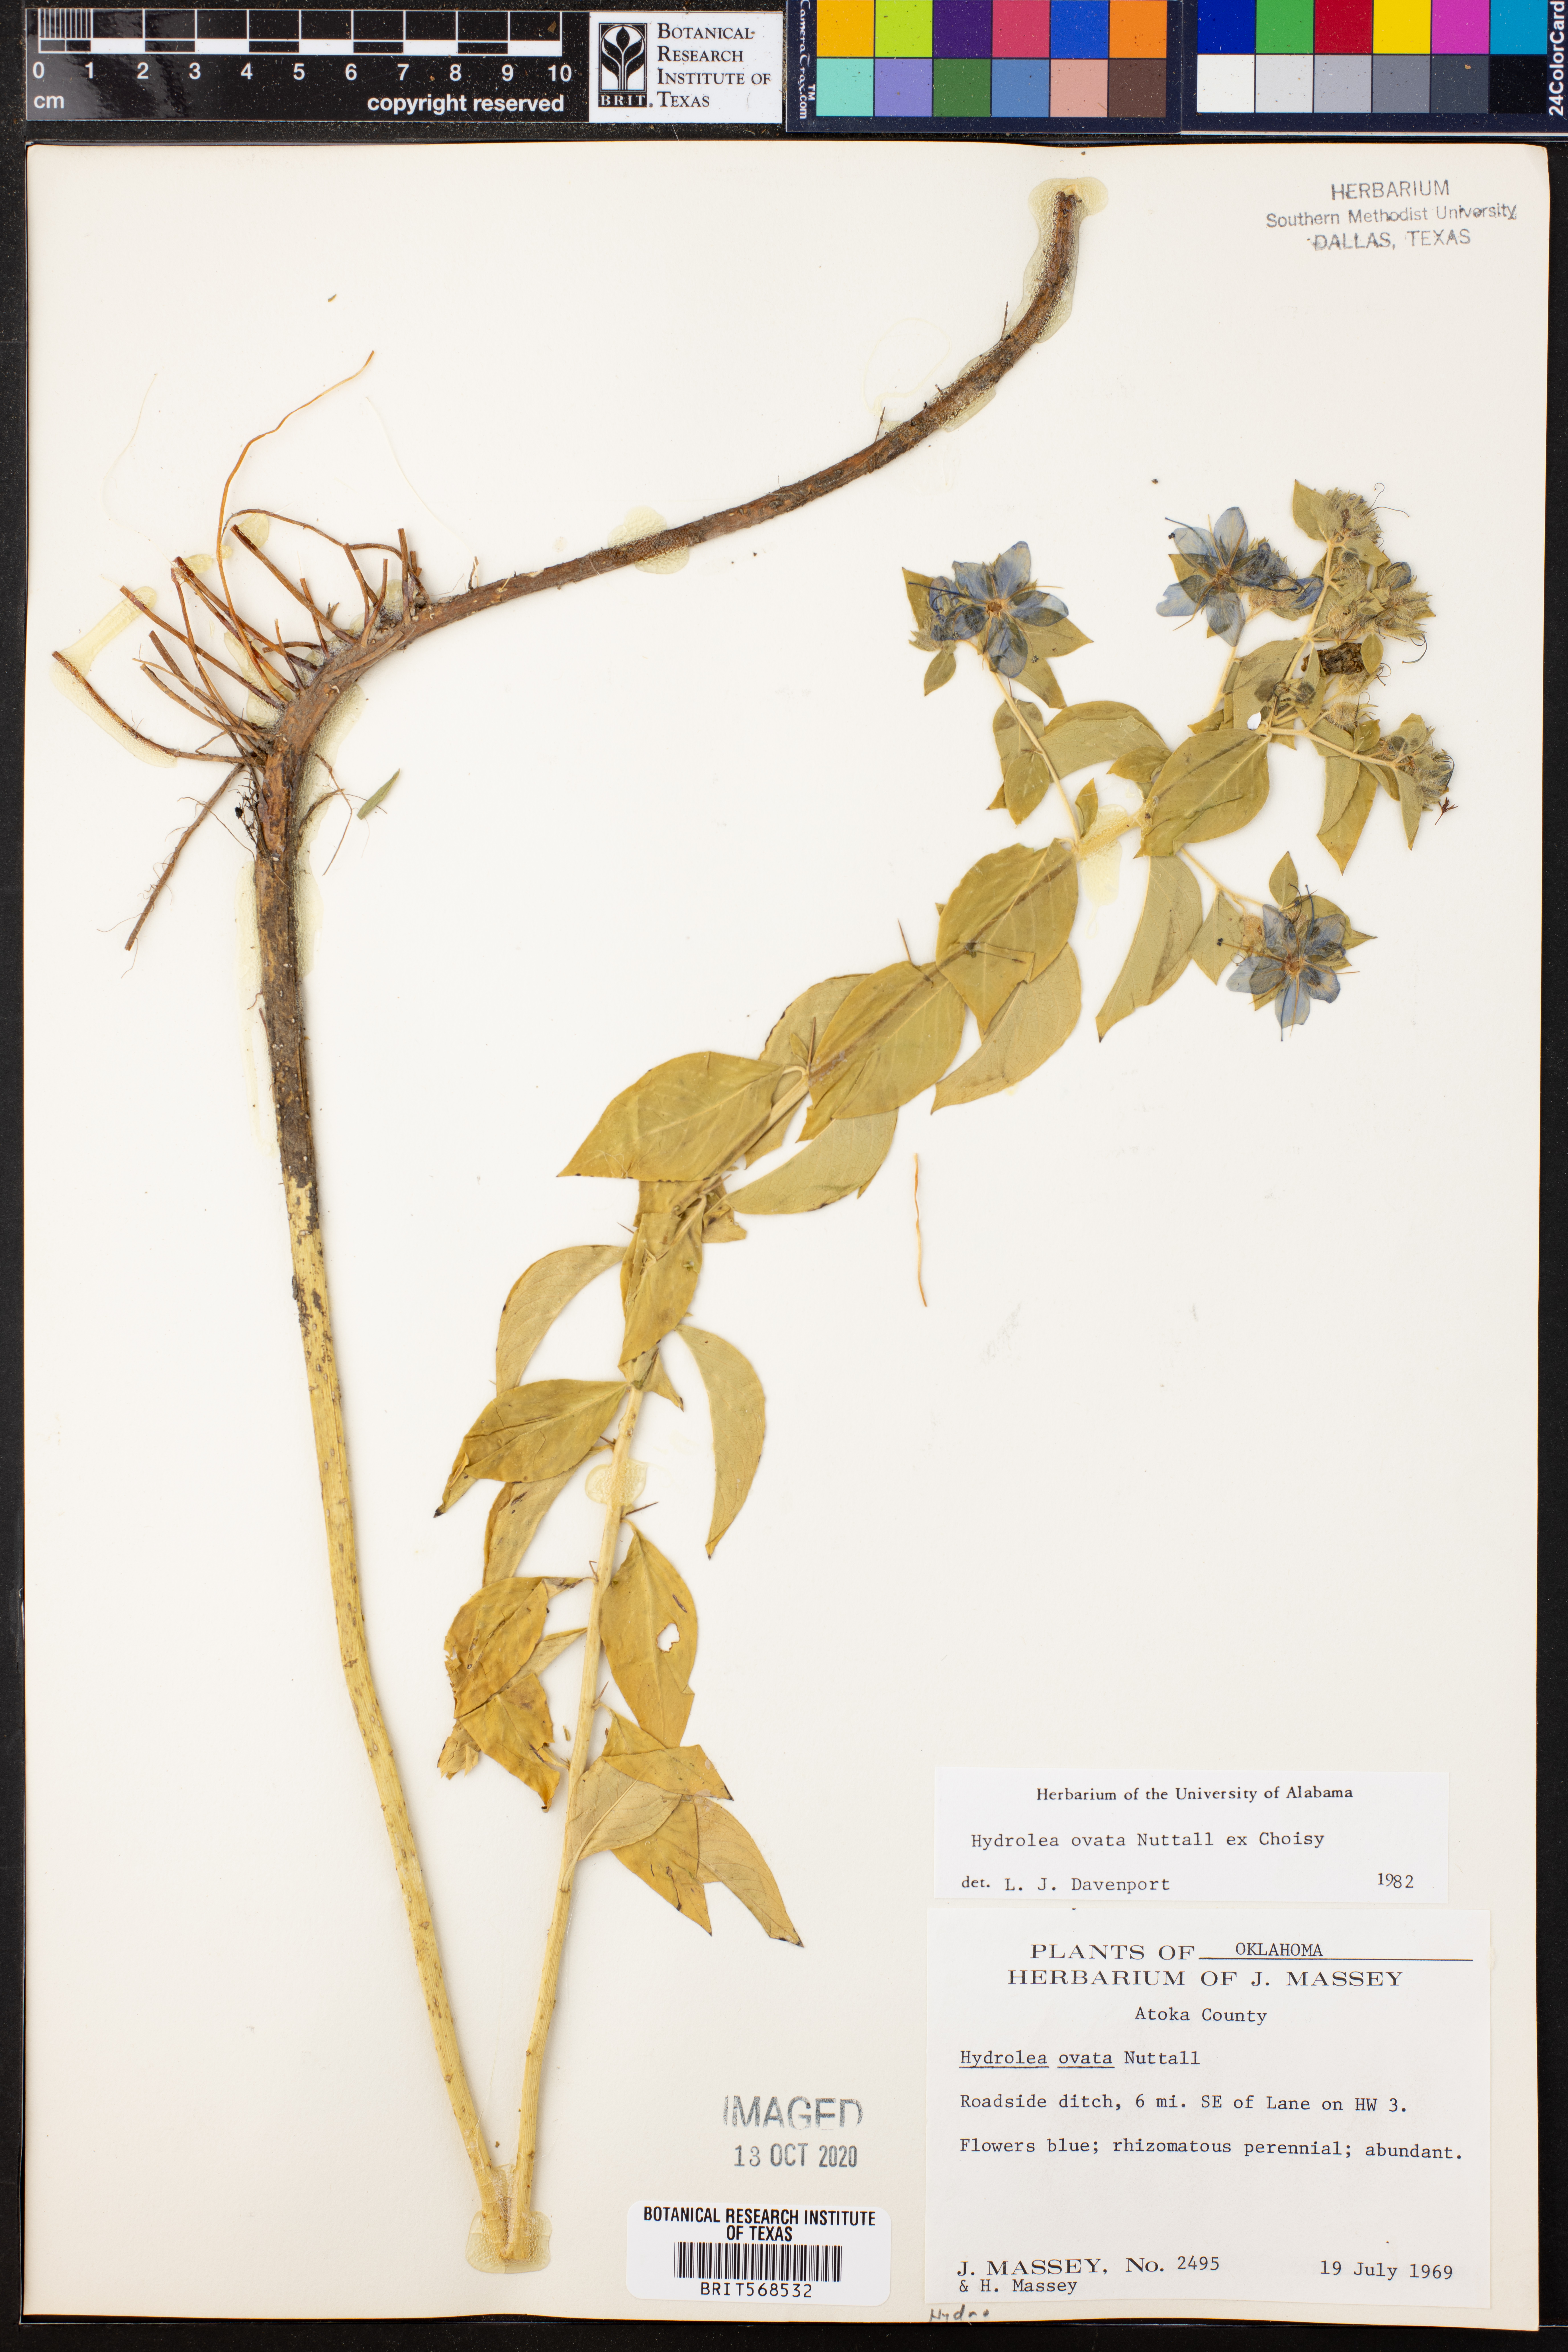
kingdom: Plantae
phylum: Tracheophyta
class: Magnoliopsida
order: Solanales
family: Hydroleaceae
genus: Hydrolea
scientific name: Hydrolea ovata
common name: Ovate false fiddleleaf
